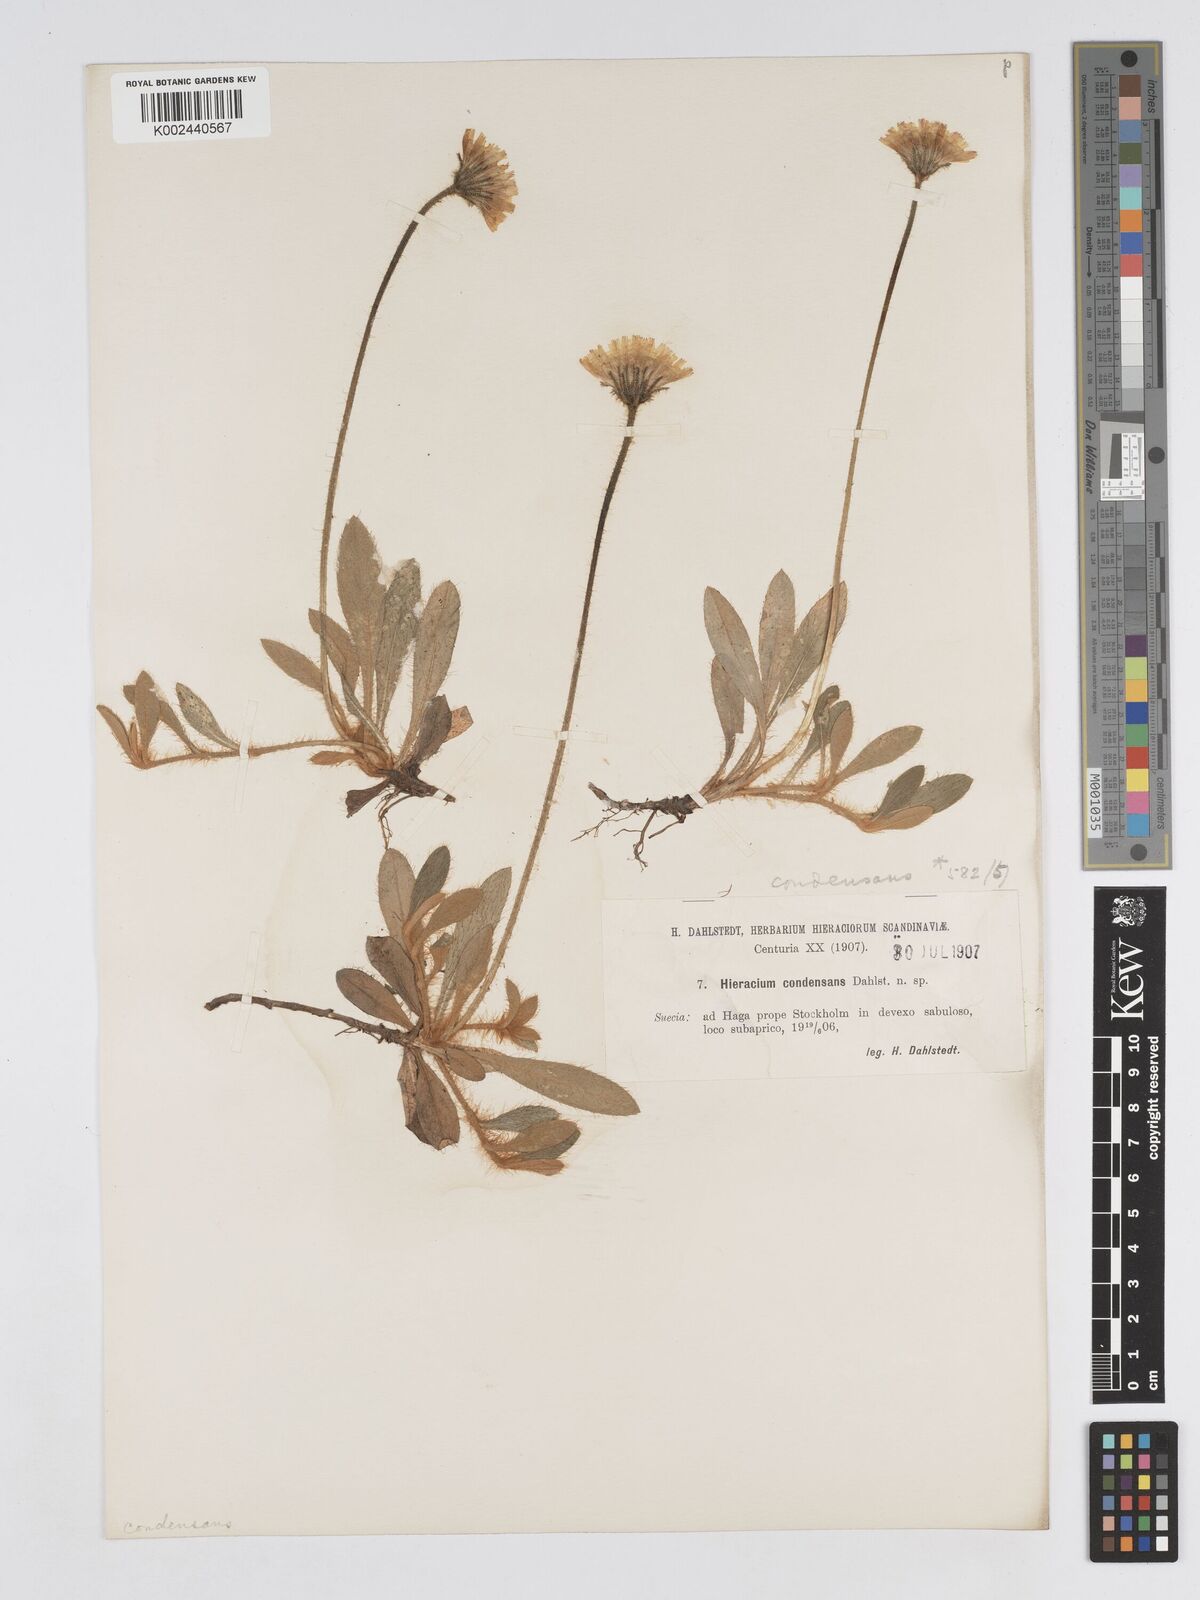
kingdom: Plantae
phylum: Tracheophyta
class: Magnoliopsida
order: Asterales
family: Asteraceae
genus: Pilosella
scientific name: Pilosella longisquama
